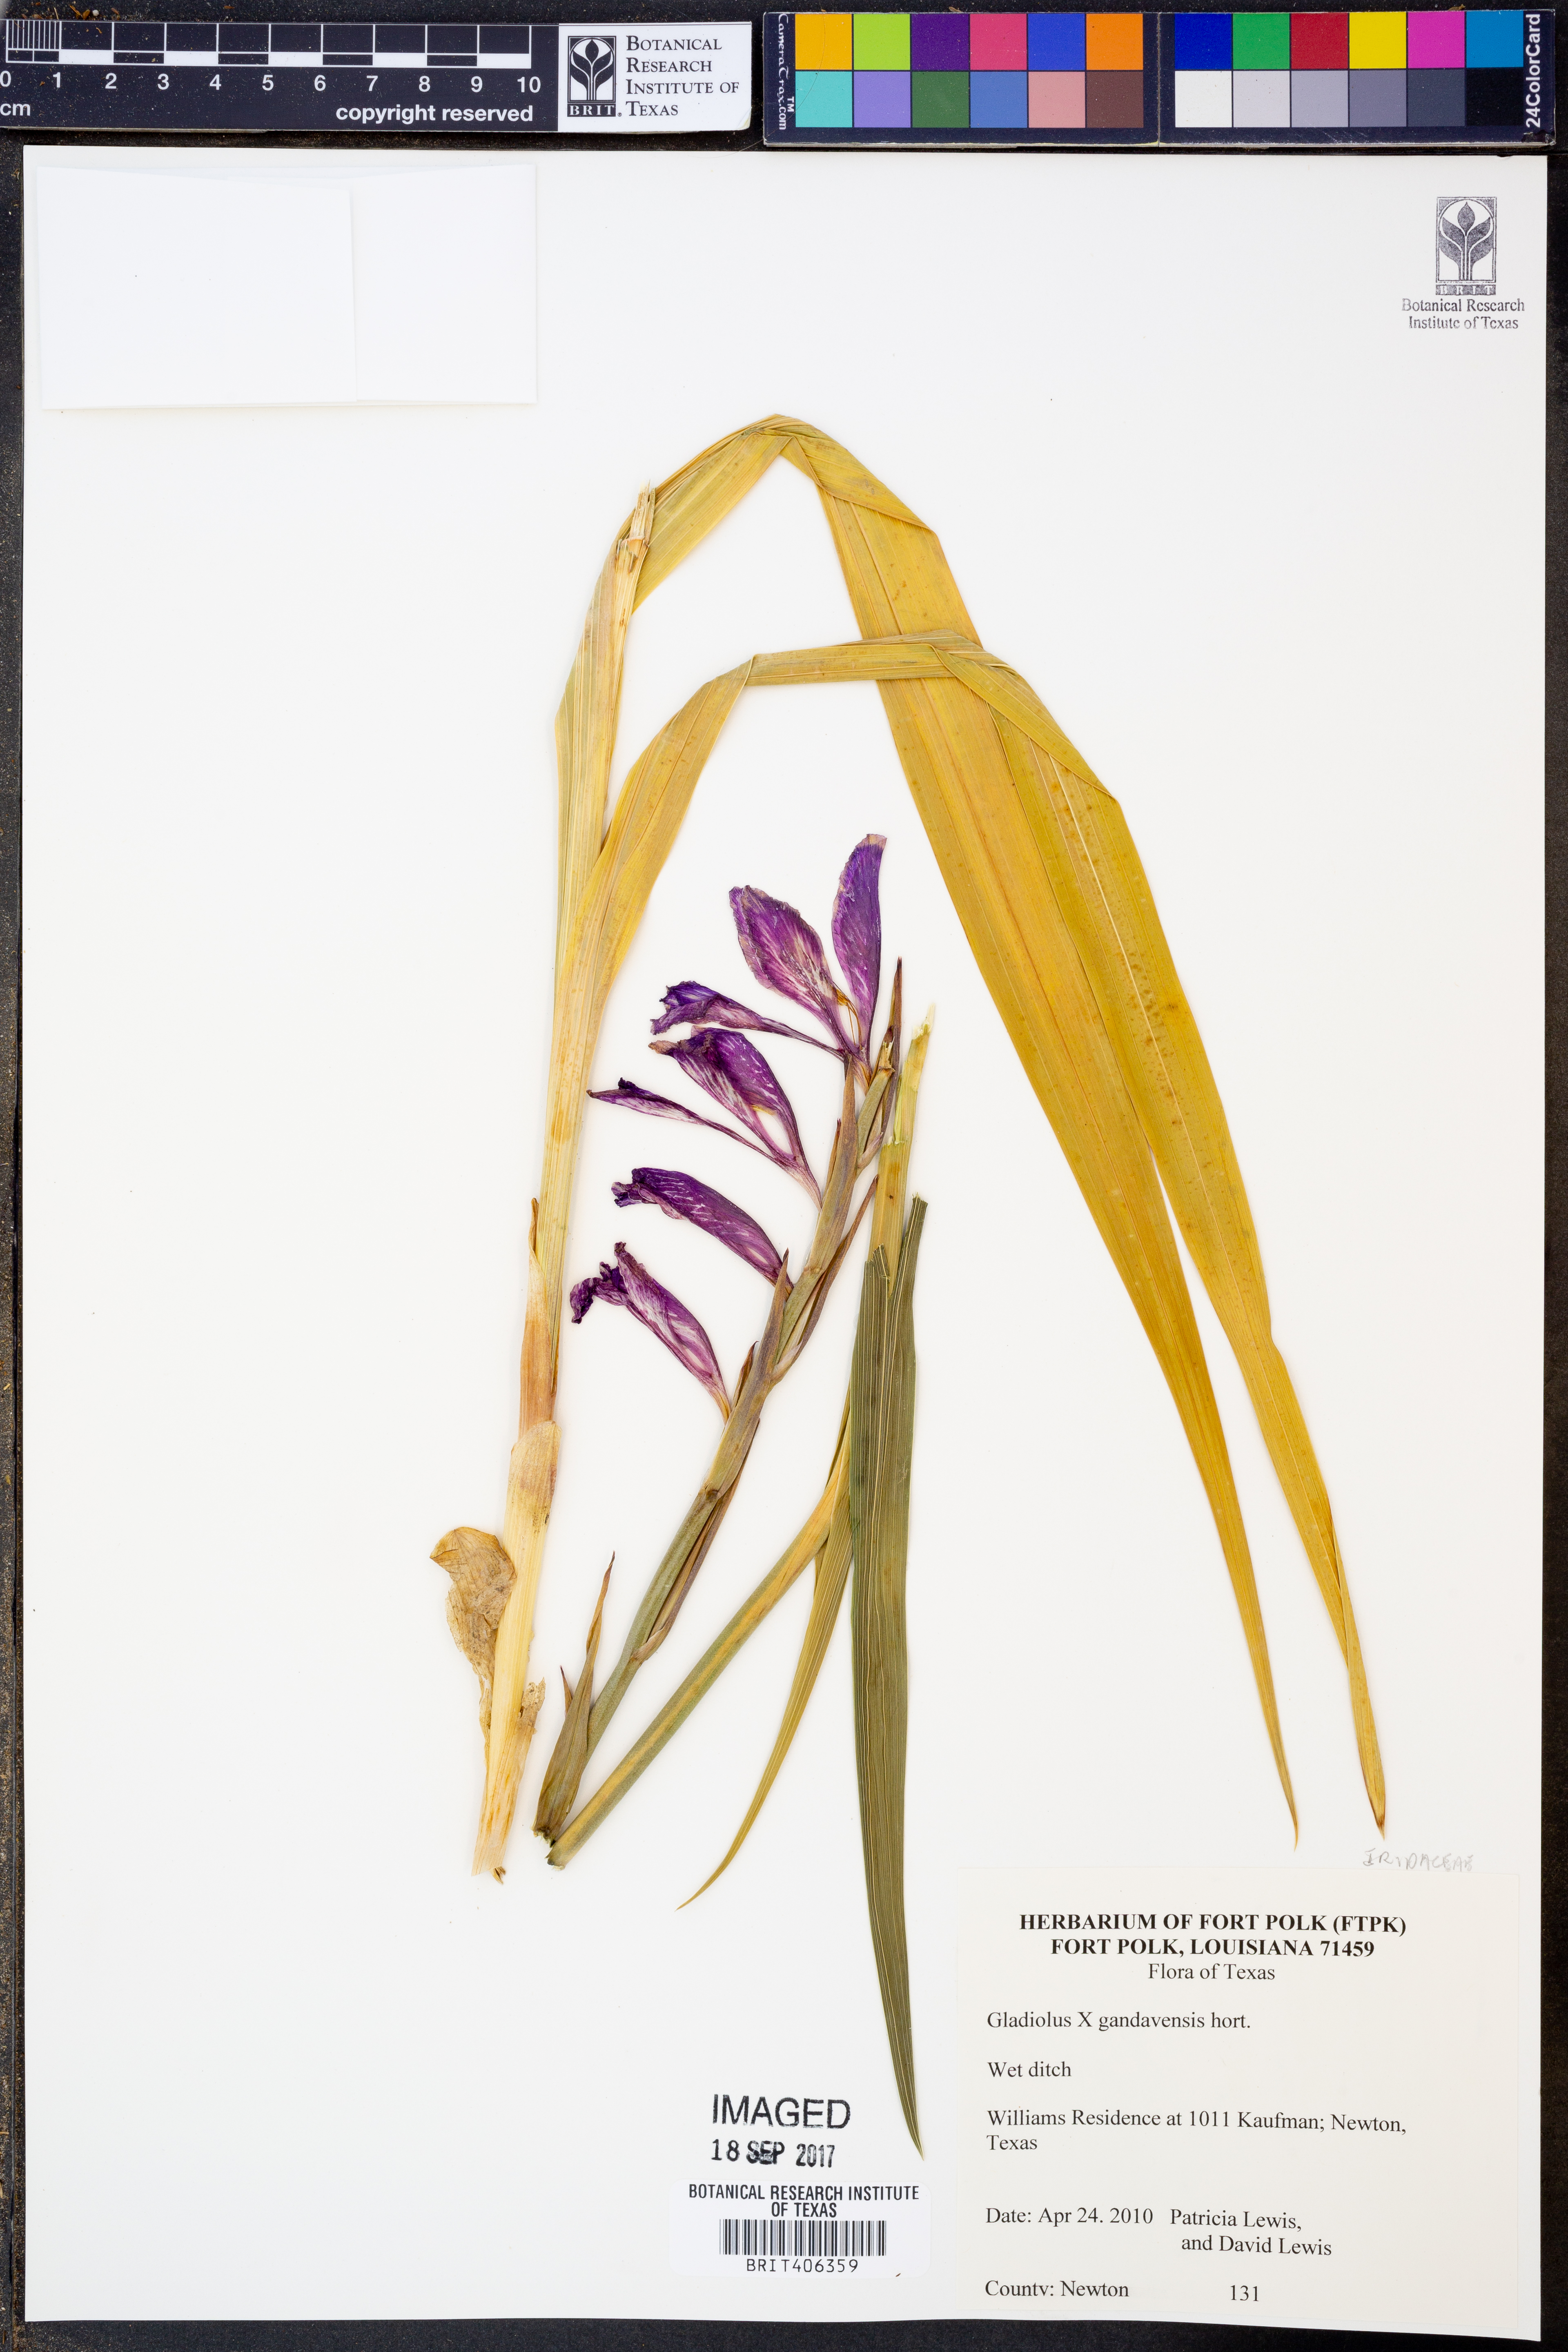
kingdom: Plantae
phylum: Tracheophyta
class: Liliopsida
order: Asparagales
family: Iridaceae
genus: Gladiolus
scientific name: Gladiolus
